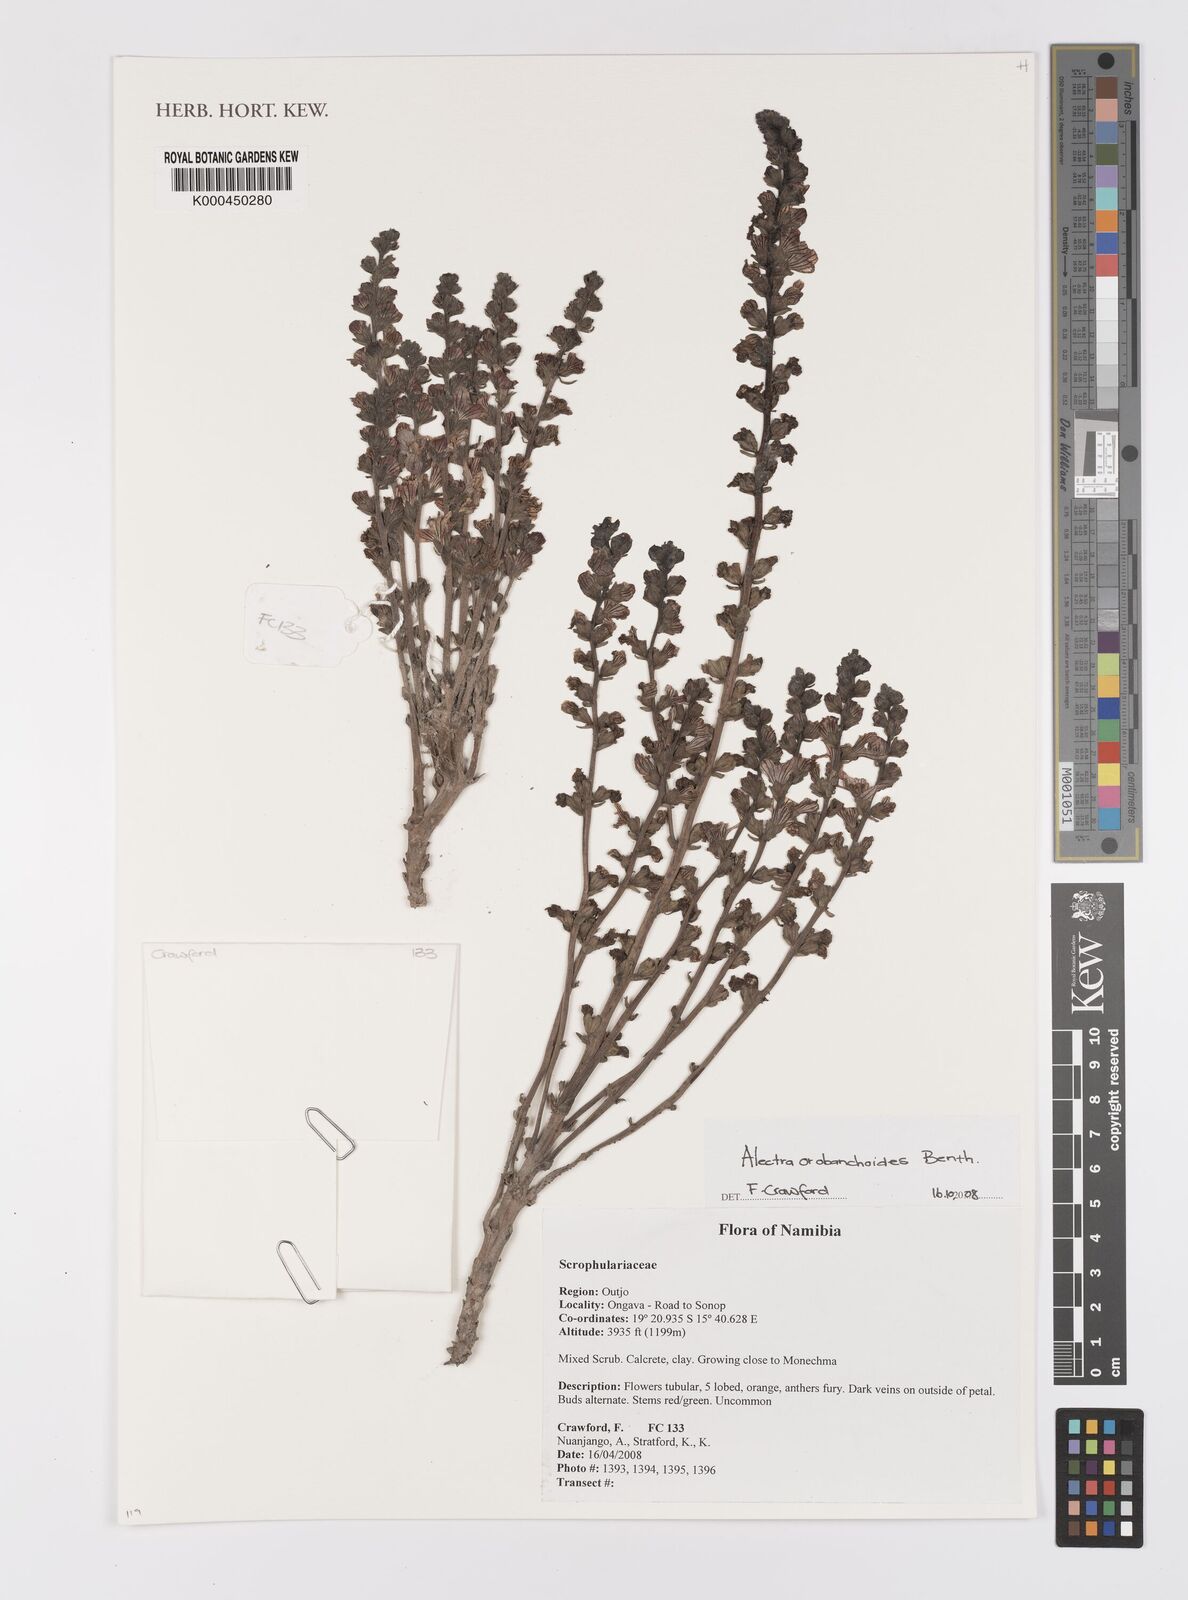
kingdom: Plantae
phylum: Tracheophyta
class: Magnoliopsida
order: Lamiales
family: Orobanchaceae
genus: Alectra
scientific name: Alectra orobanchoides
